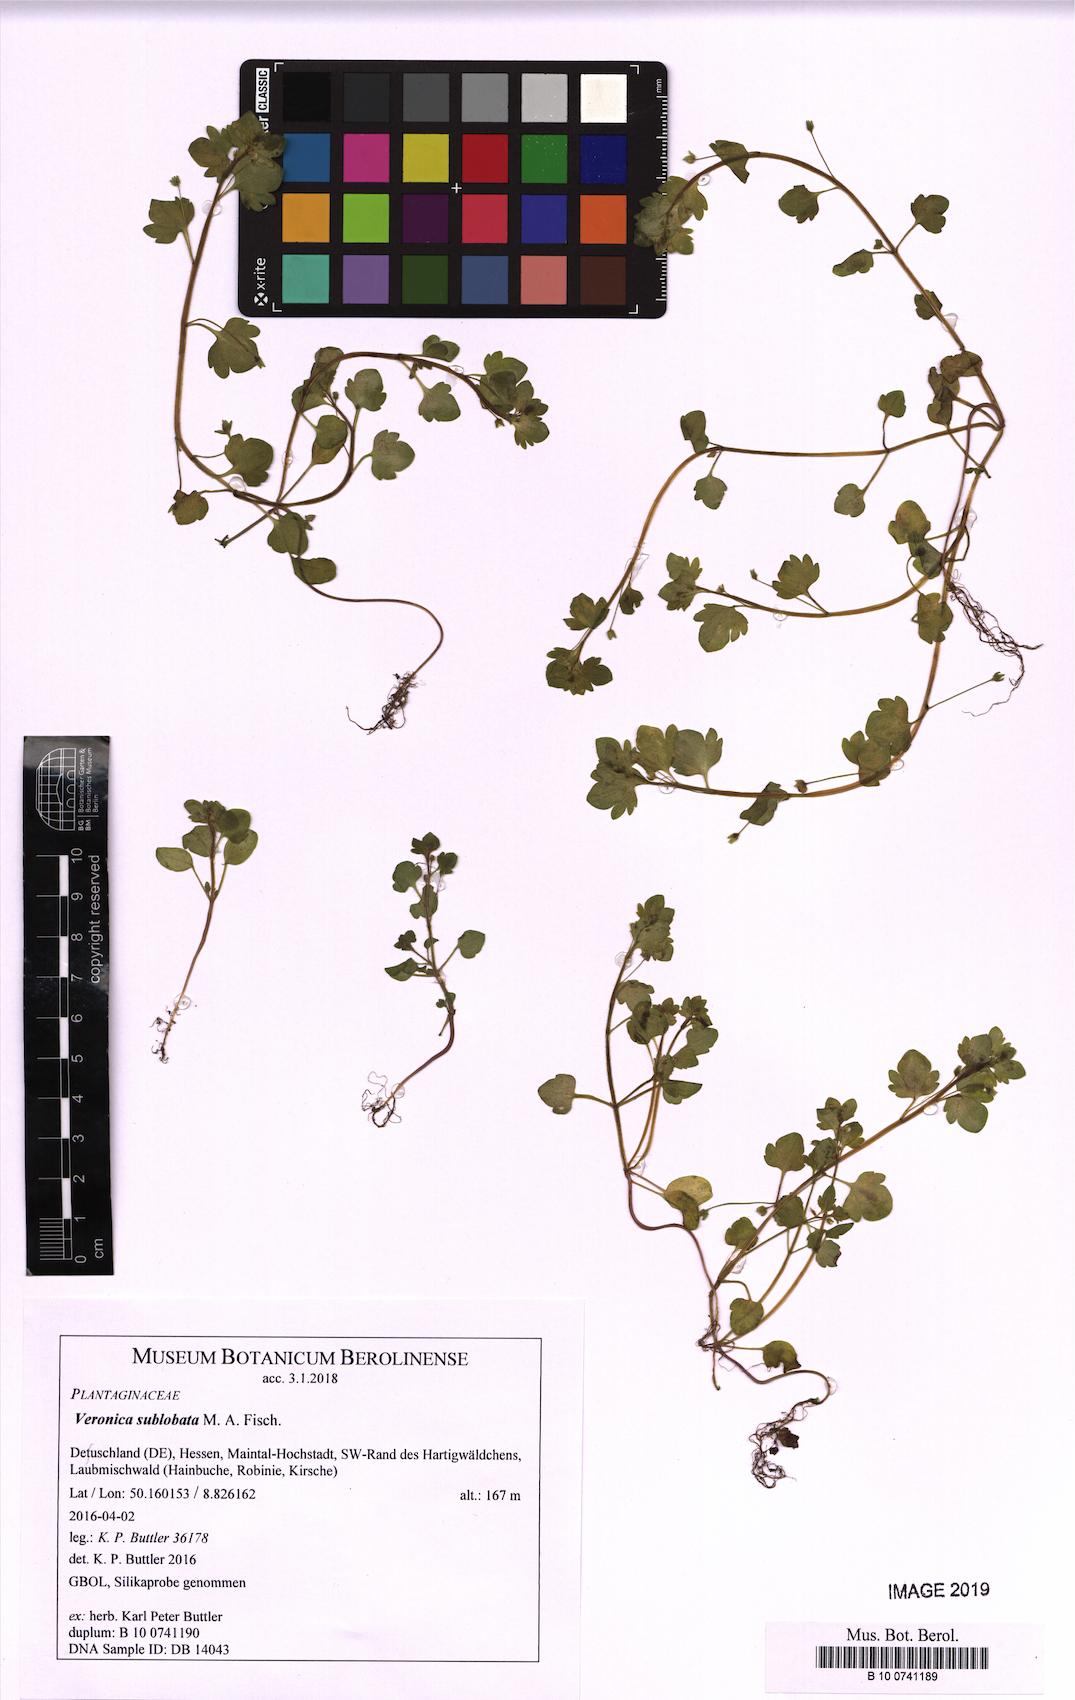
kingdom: Plantae
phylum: Tracheophyta
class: Magnoliopsida
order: Lamiales
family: Plantaginaceae
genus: Veronica
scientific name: Veronica sublobata
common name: False ivy-leaved speedwell
